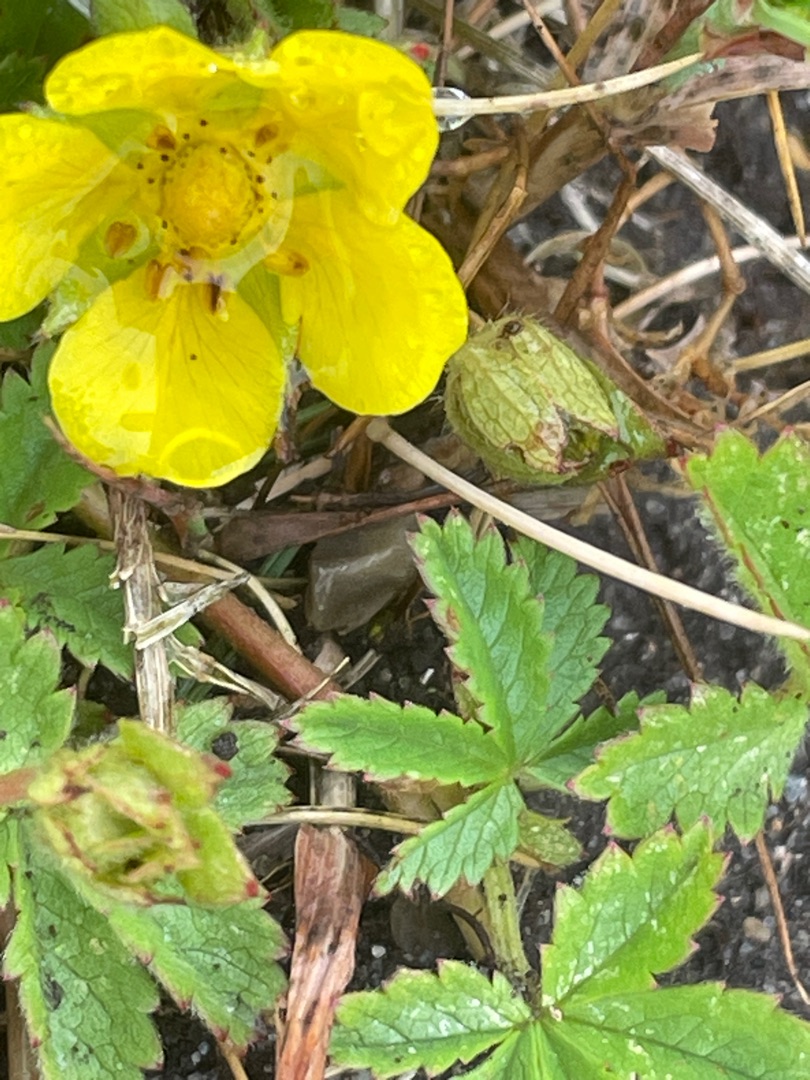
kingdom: Plantae
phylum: Tracheophyta
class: Magnoliopsida
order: Rosales
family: Rosaceae
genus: Potentilla
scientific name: Potentilla reptans
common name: Krybende potentil
